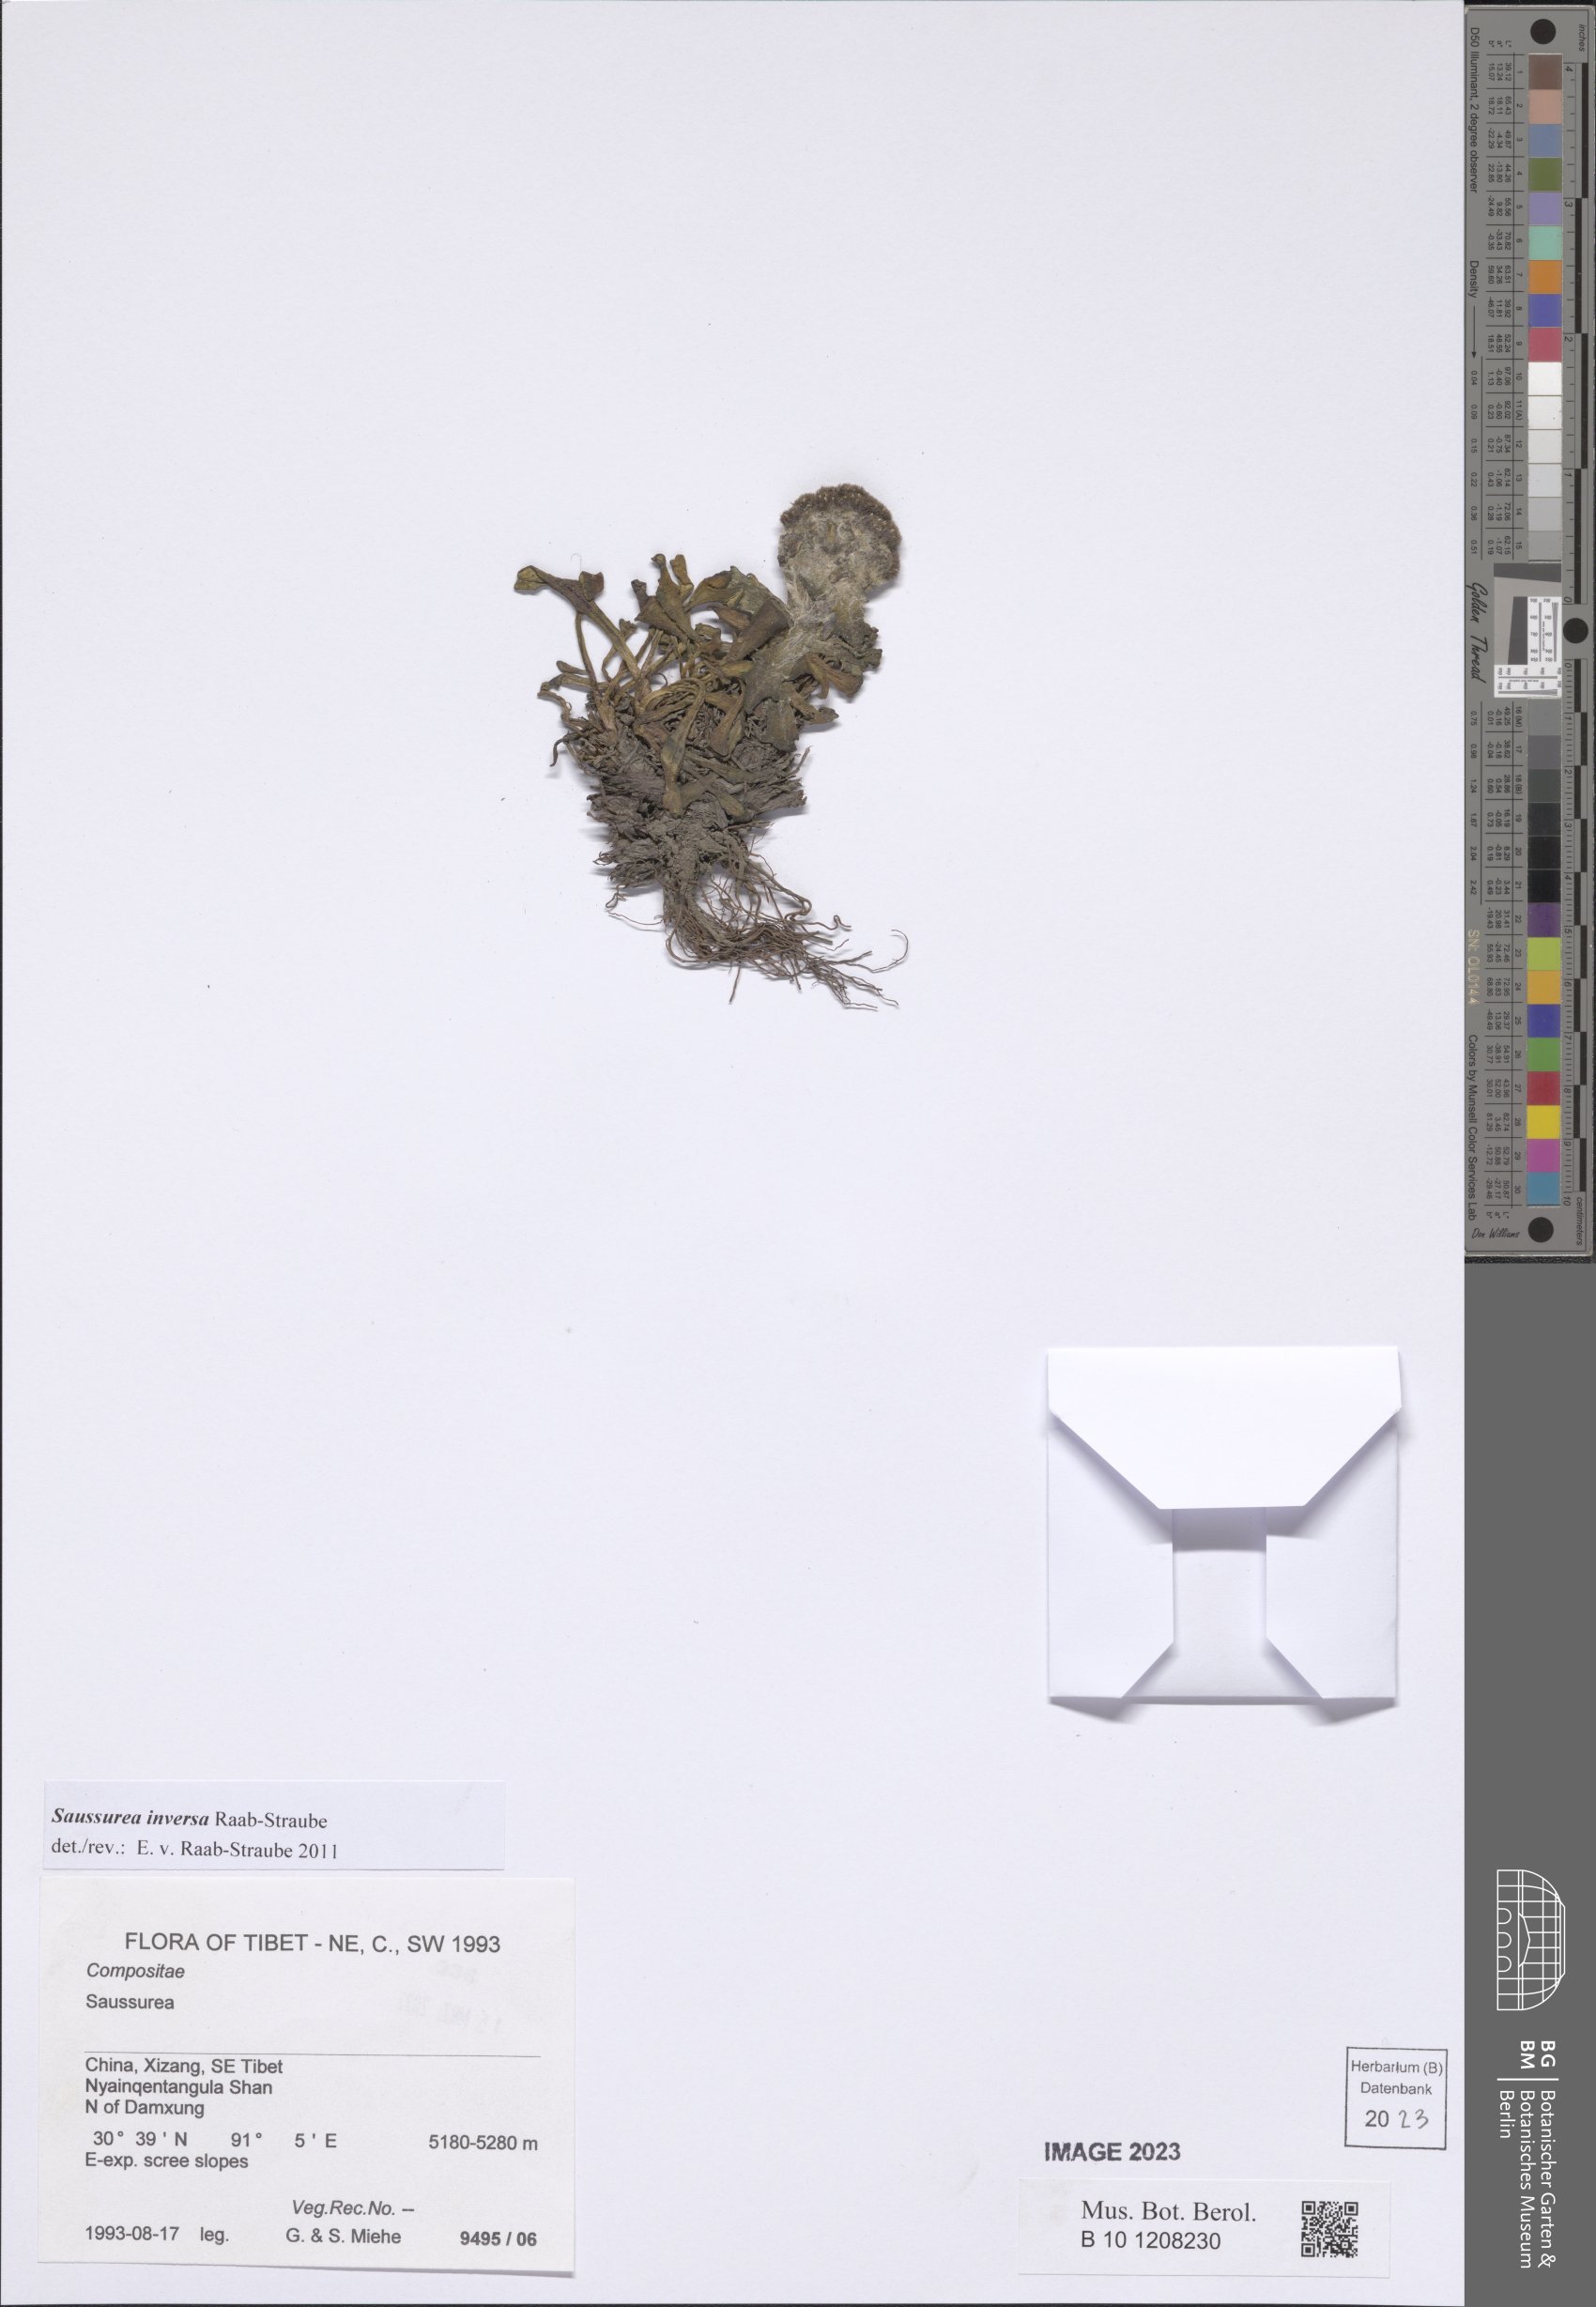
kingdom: Plantae
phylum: Tracheophyta
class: Magnoliopsida
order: Asterales
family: Asteraceae
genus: Saussurea
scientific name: Saussurea inversa
